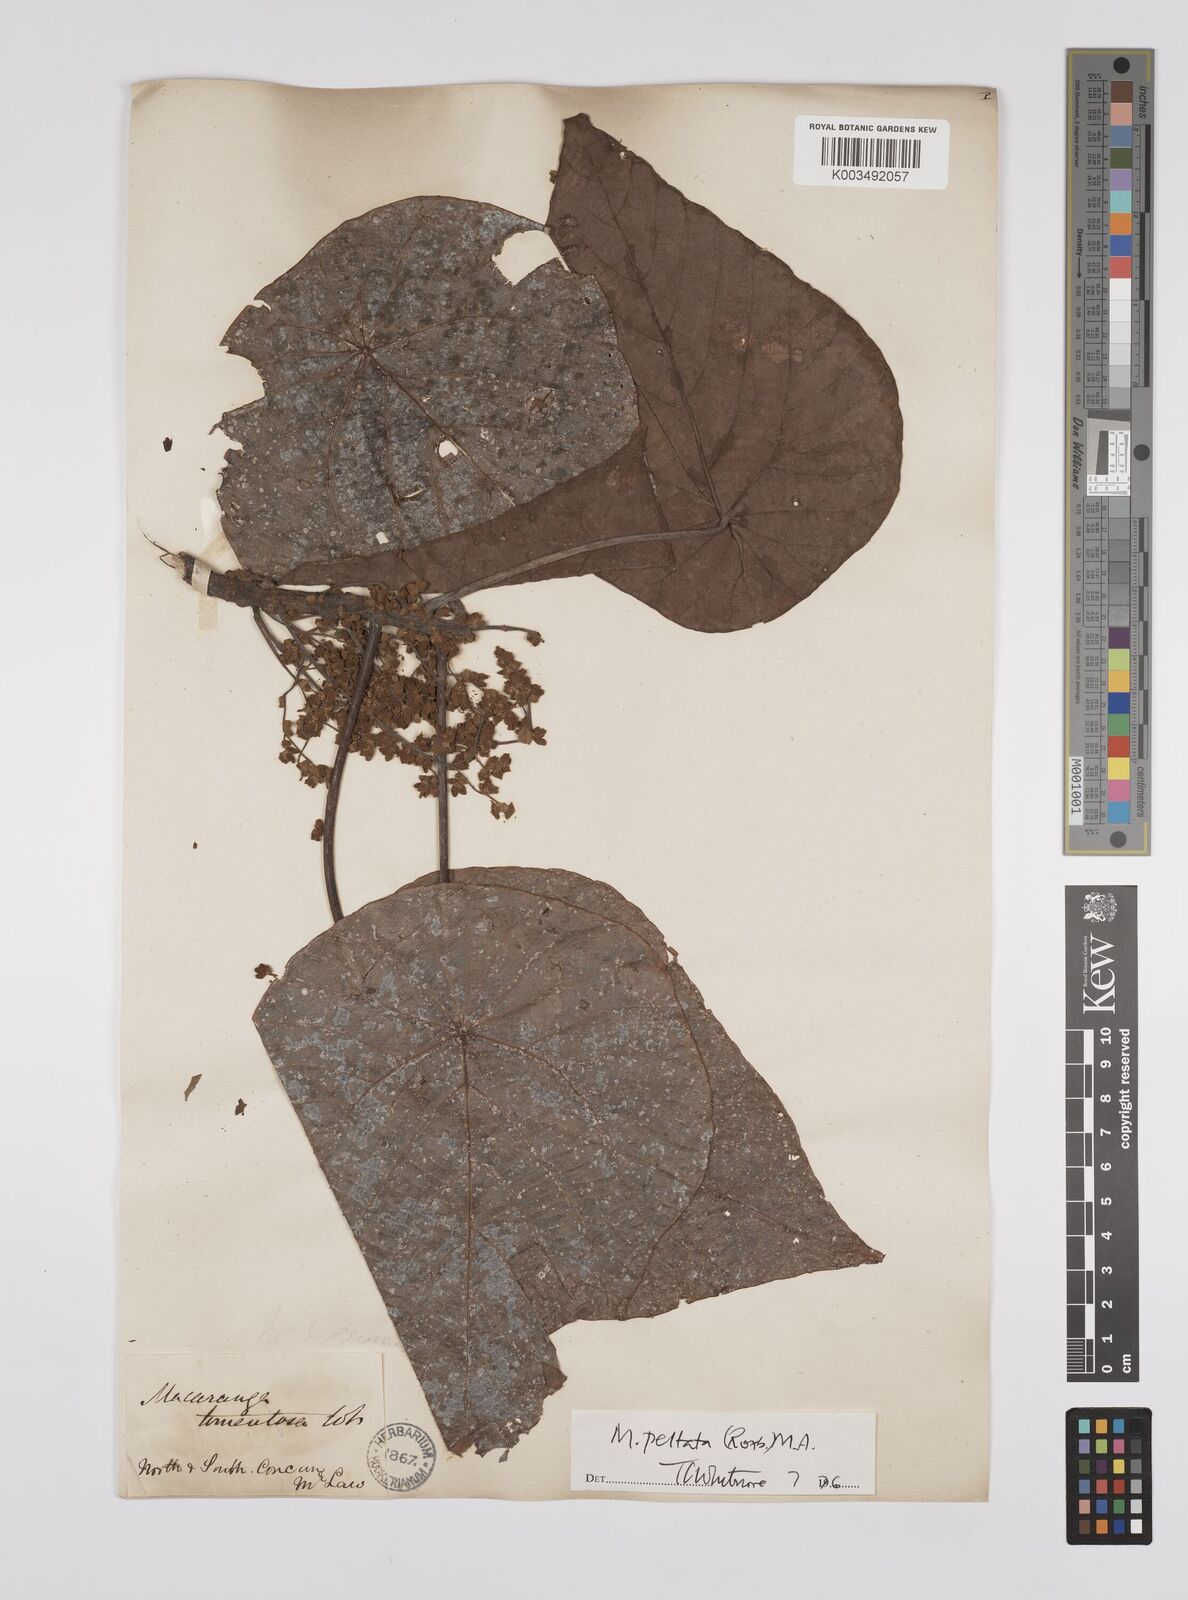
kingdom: Plantae
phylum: Tracheophyta
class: Magnoliopsida
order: Malpighiales
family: Euphorbiaceae
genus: Macaranga
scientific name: Macaranga peltata
